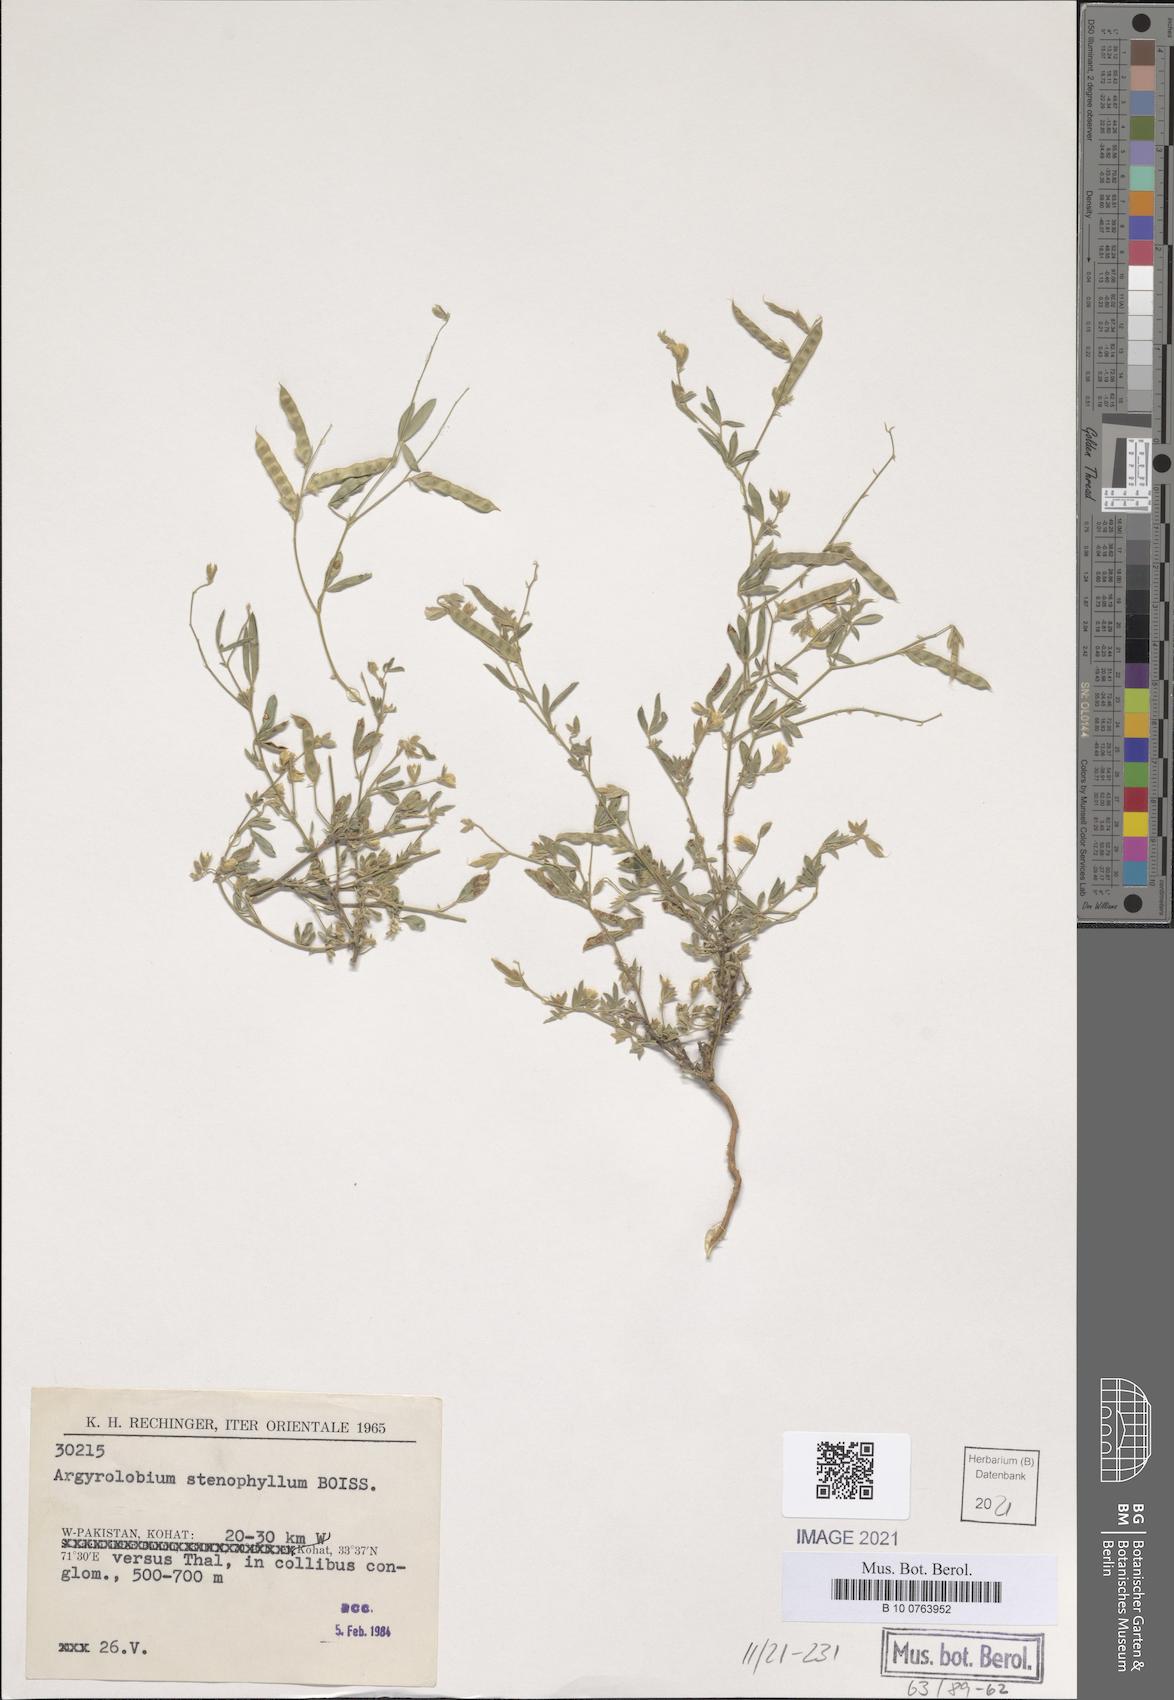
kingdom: Plantae
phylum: Tracheophyta
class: Magnoliopsida
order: Fabales
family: Fabaceae
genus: Argyrolobium
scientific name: Argyrolobium stenophyllum
